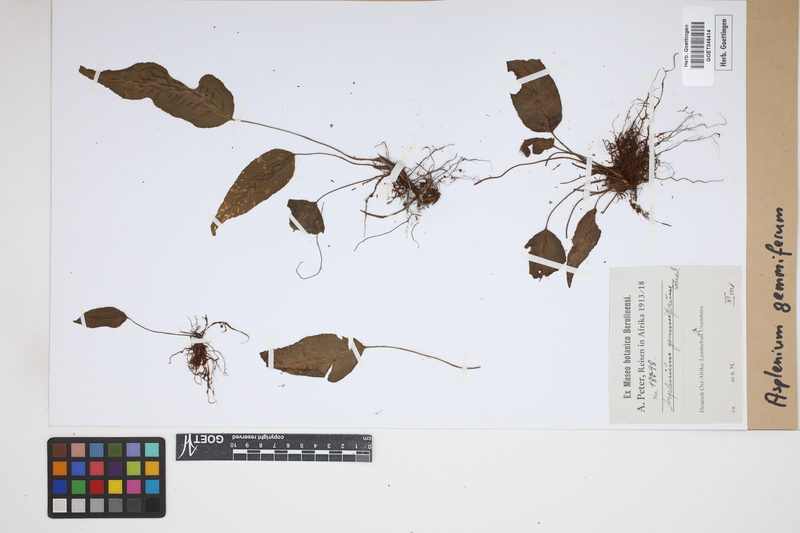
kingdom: Plantae
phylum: Tracheophyta
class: Polypodiopsida
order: Polypodiales
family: Aspleniaceae
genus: Asplenium
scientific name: Asplenium gemmiferum
